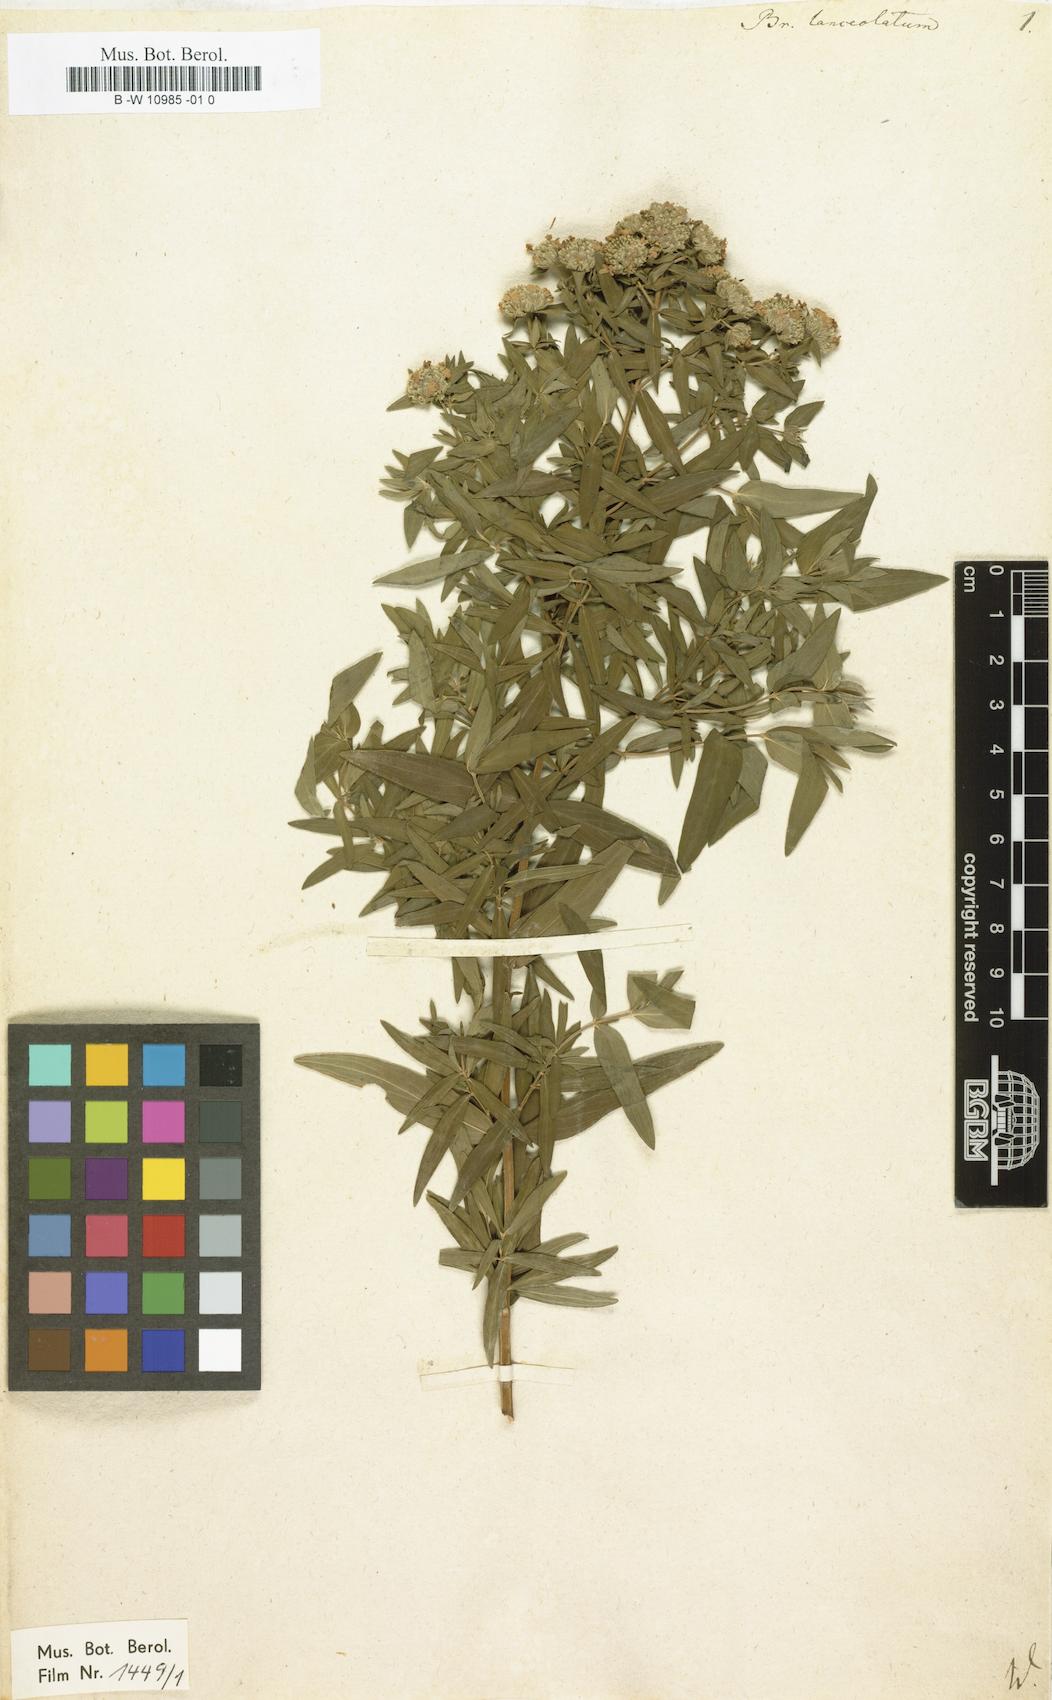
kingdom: Plantae
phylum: Tracheophyta
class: Magnoliopsida
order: Lamiales
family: Lamiaceae
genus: Pycnanthemum
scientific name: Pycnanthemum virginianum
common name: Virginia mountain-mint
